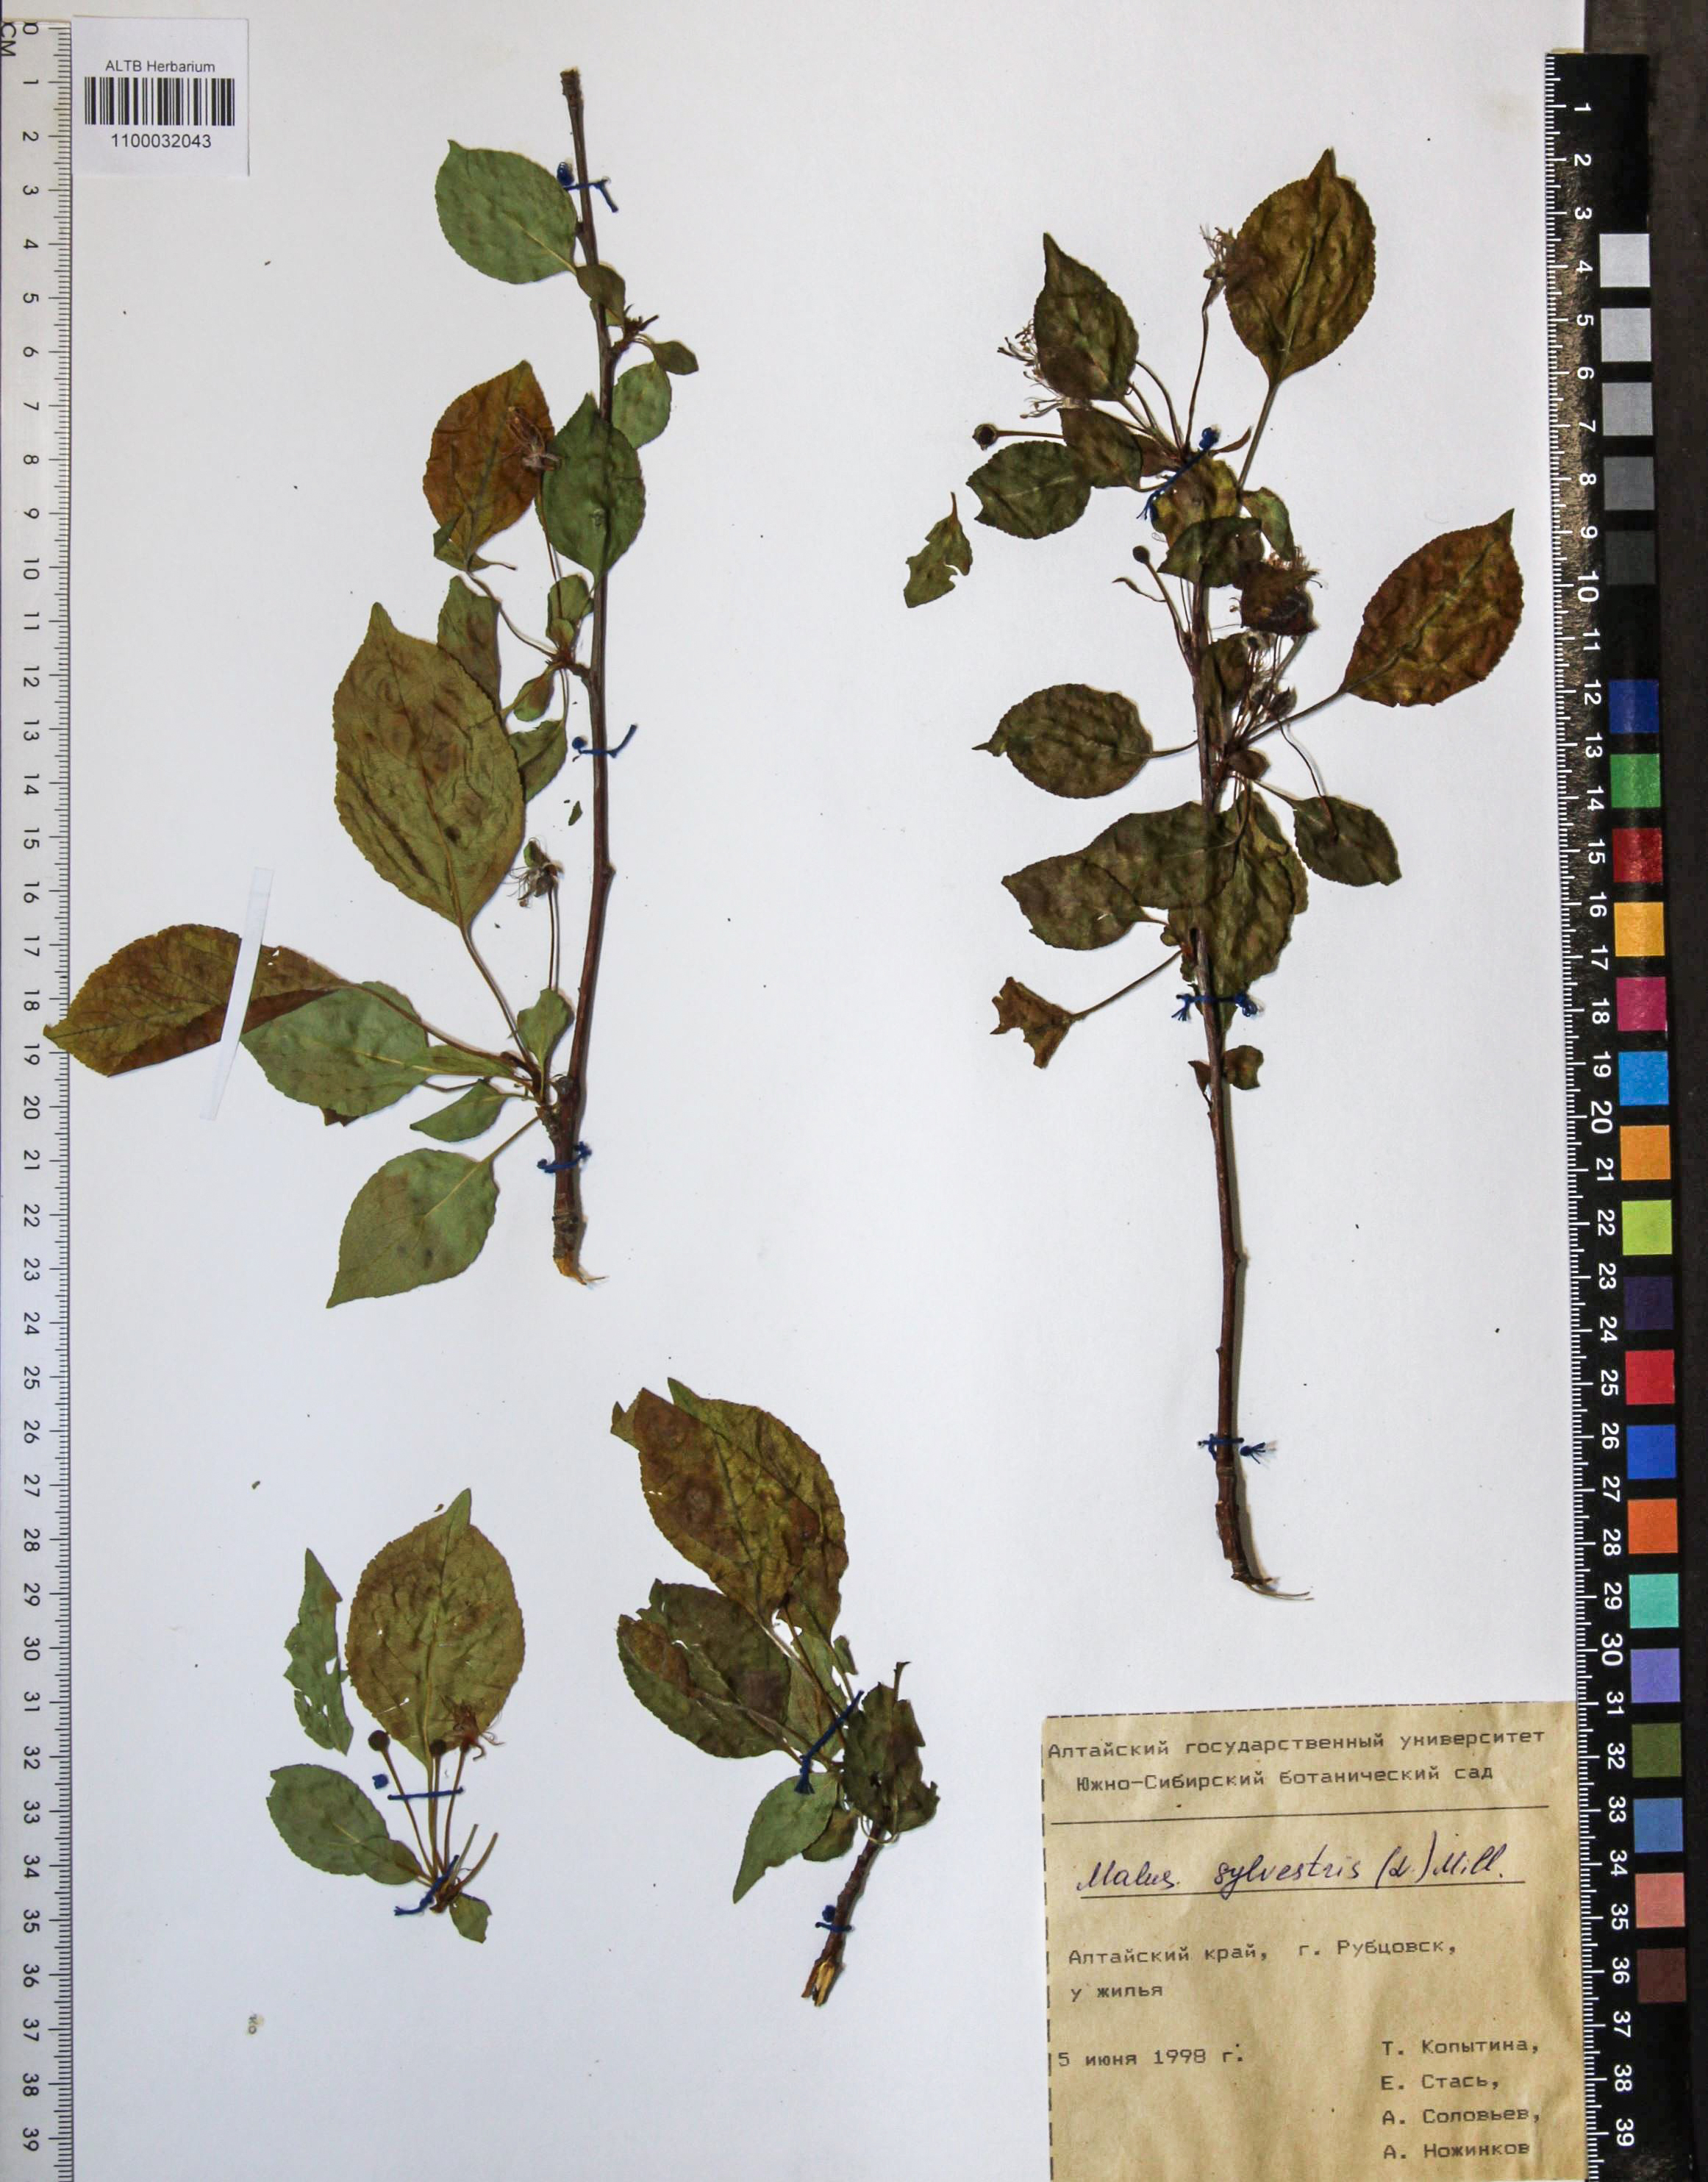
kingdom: Plantae
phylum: Tracheophyta
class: Magnoliopsida
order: Rosales
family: Rosaceae
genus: Malus
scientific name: Malus sylvestris
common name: Crab apple
